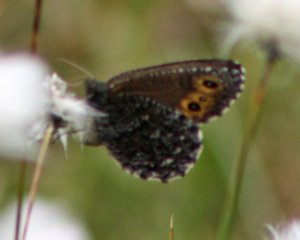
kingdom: Animalia
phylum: Arthropoda
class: Insecta
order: Lepidoptera
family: Nymphalidae
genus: Oeneis
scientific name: Oeneis jutta
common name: Jutta Arctic
